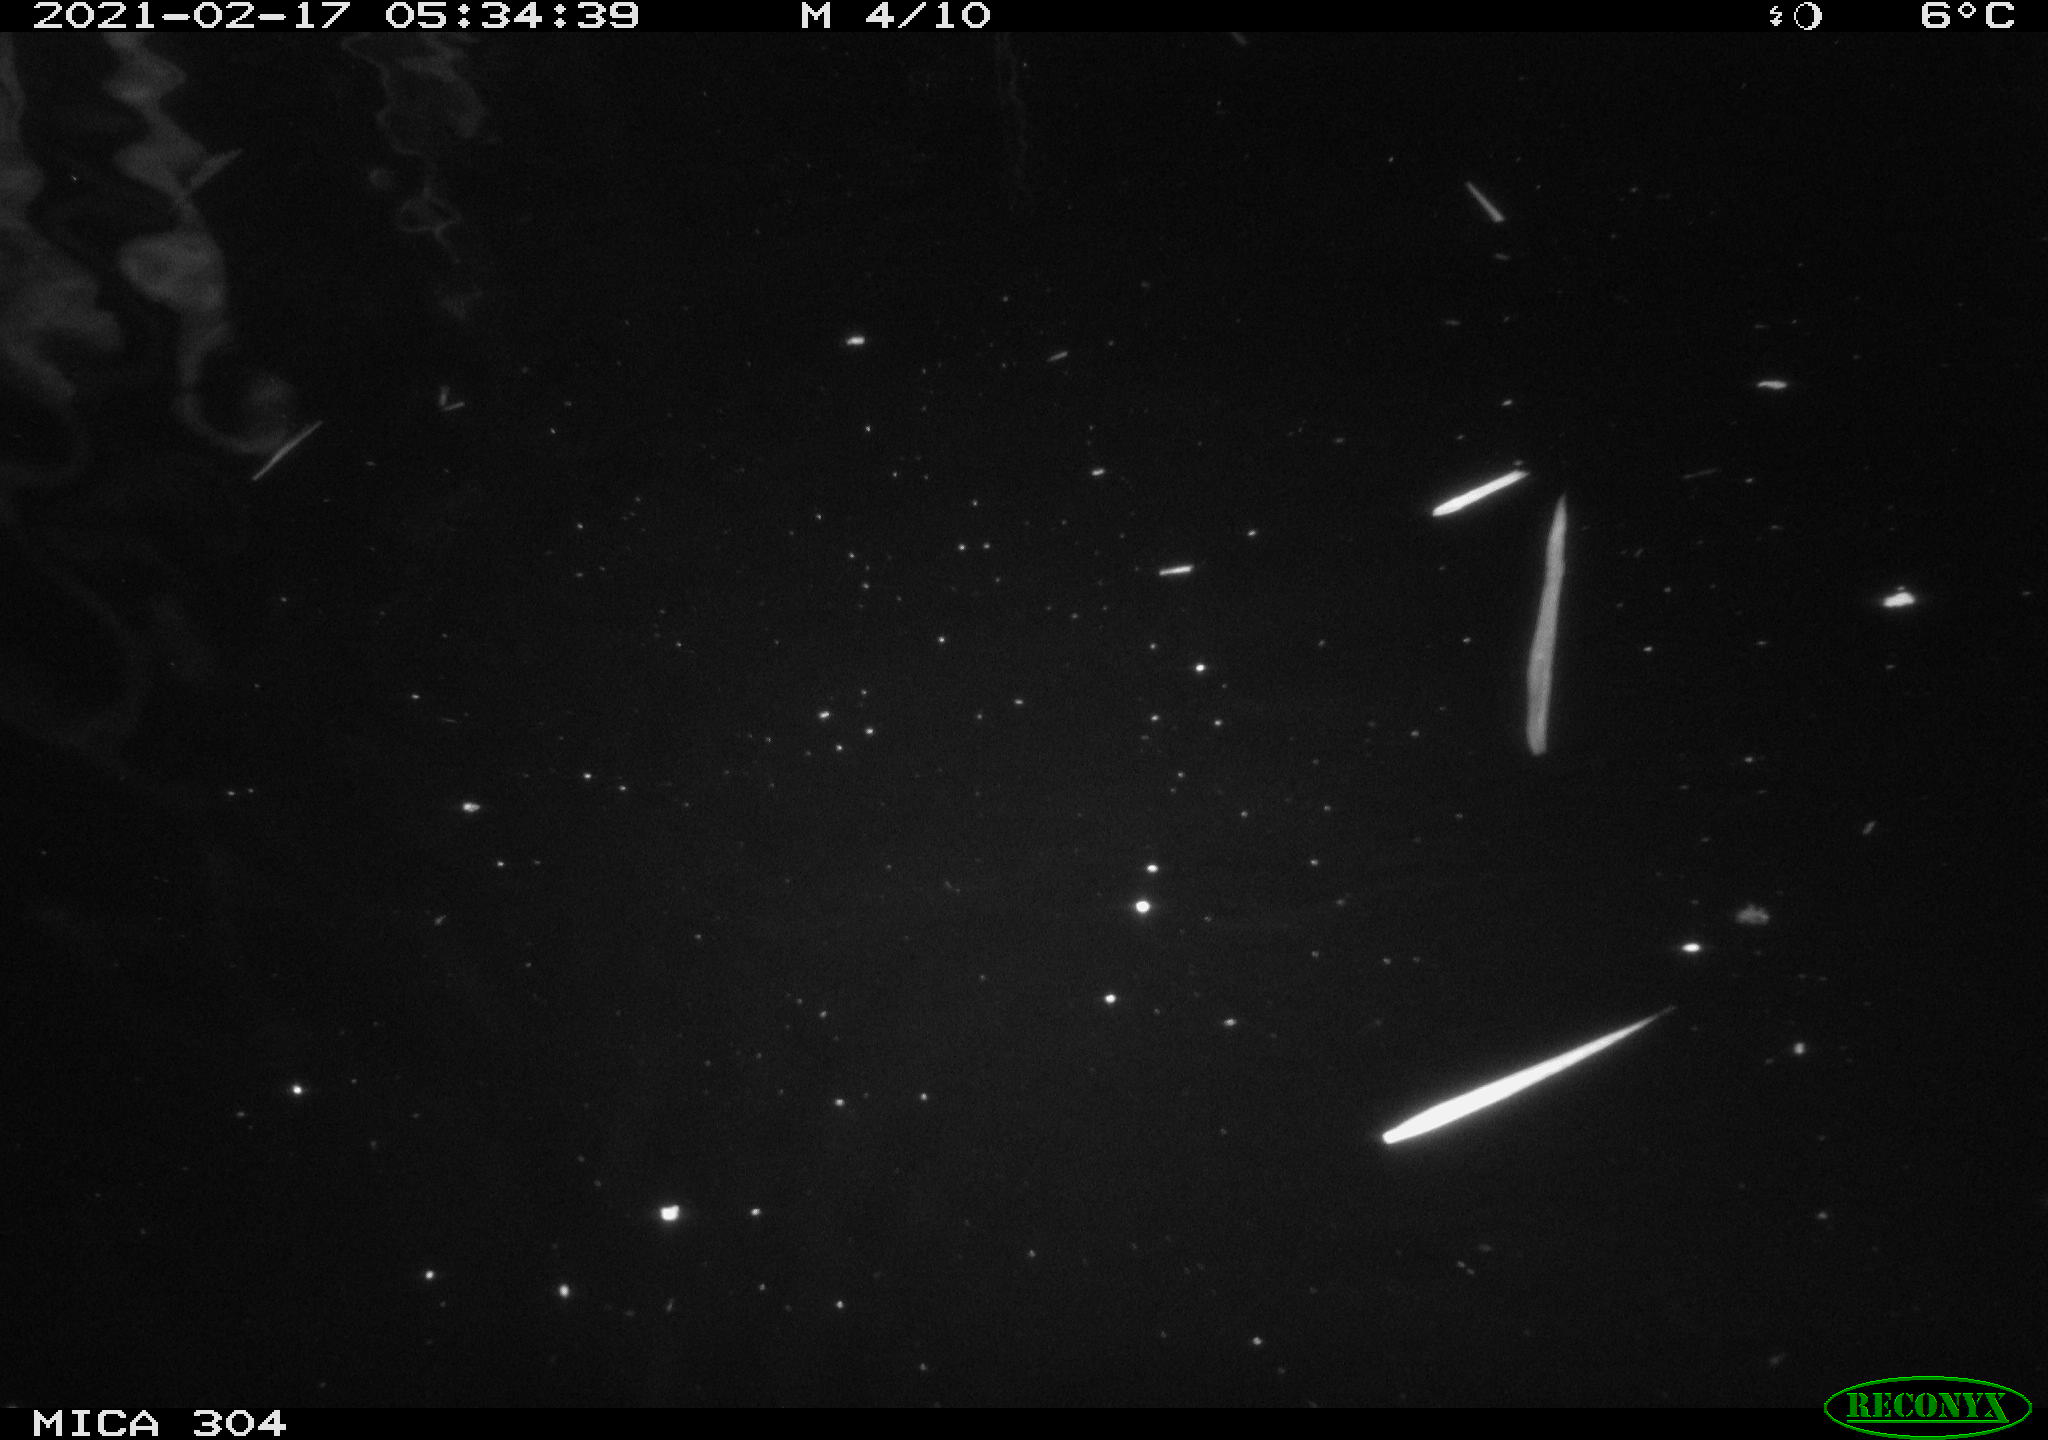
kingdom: Animalia
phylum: Chordata
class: Mammalia
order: Rodentia
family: Cricetidae
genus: Ondatra
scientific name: Ondatra zibethicus
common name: Muskrat
